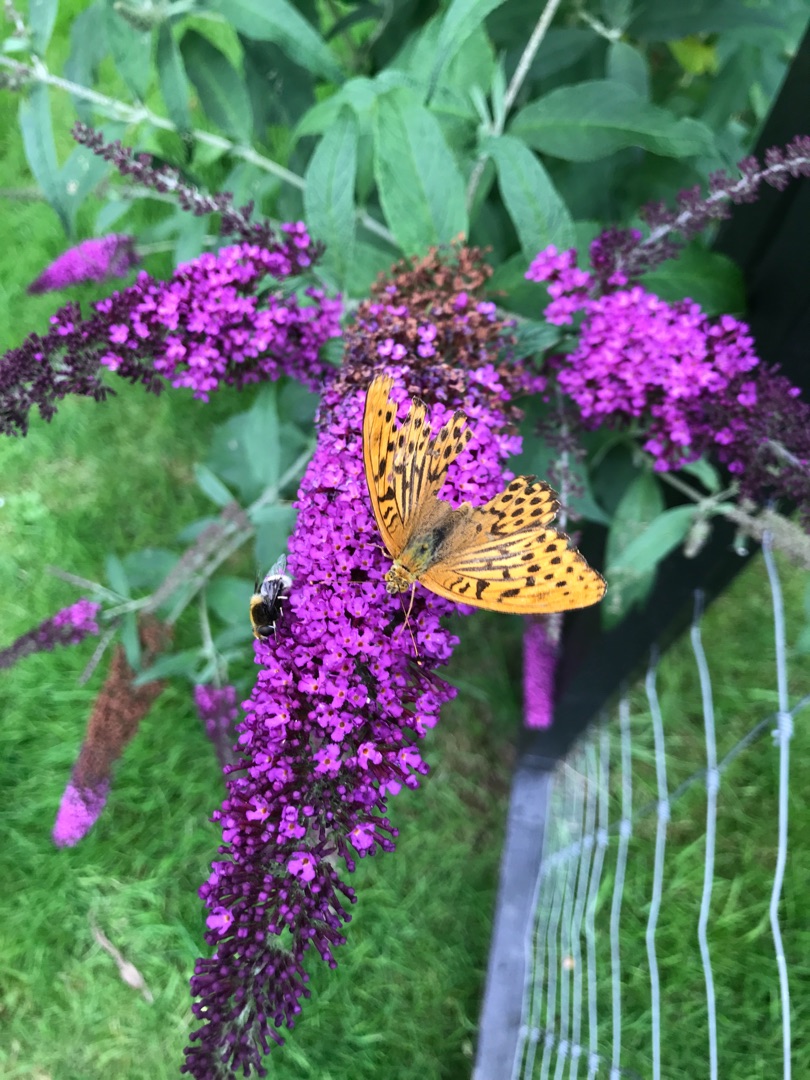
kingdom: Animalia
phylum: Arthropoda
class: Insecta
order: Lepidoptera
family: Nymphalidae
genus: Argynnis
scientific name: Argynnis paphia
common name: Kejserkåbe
